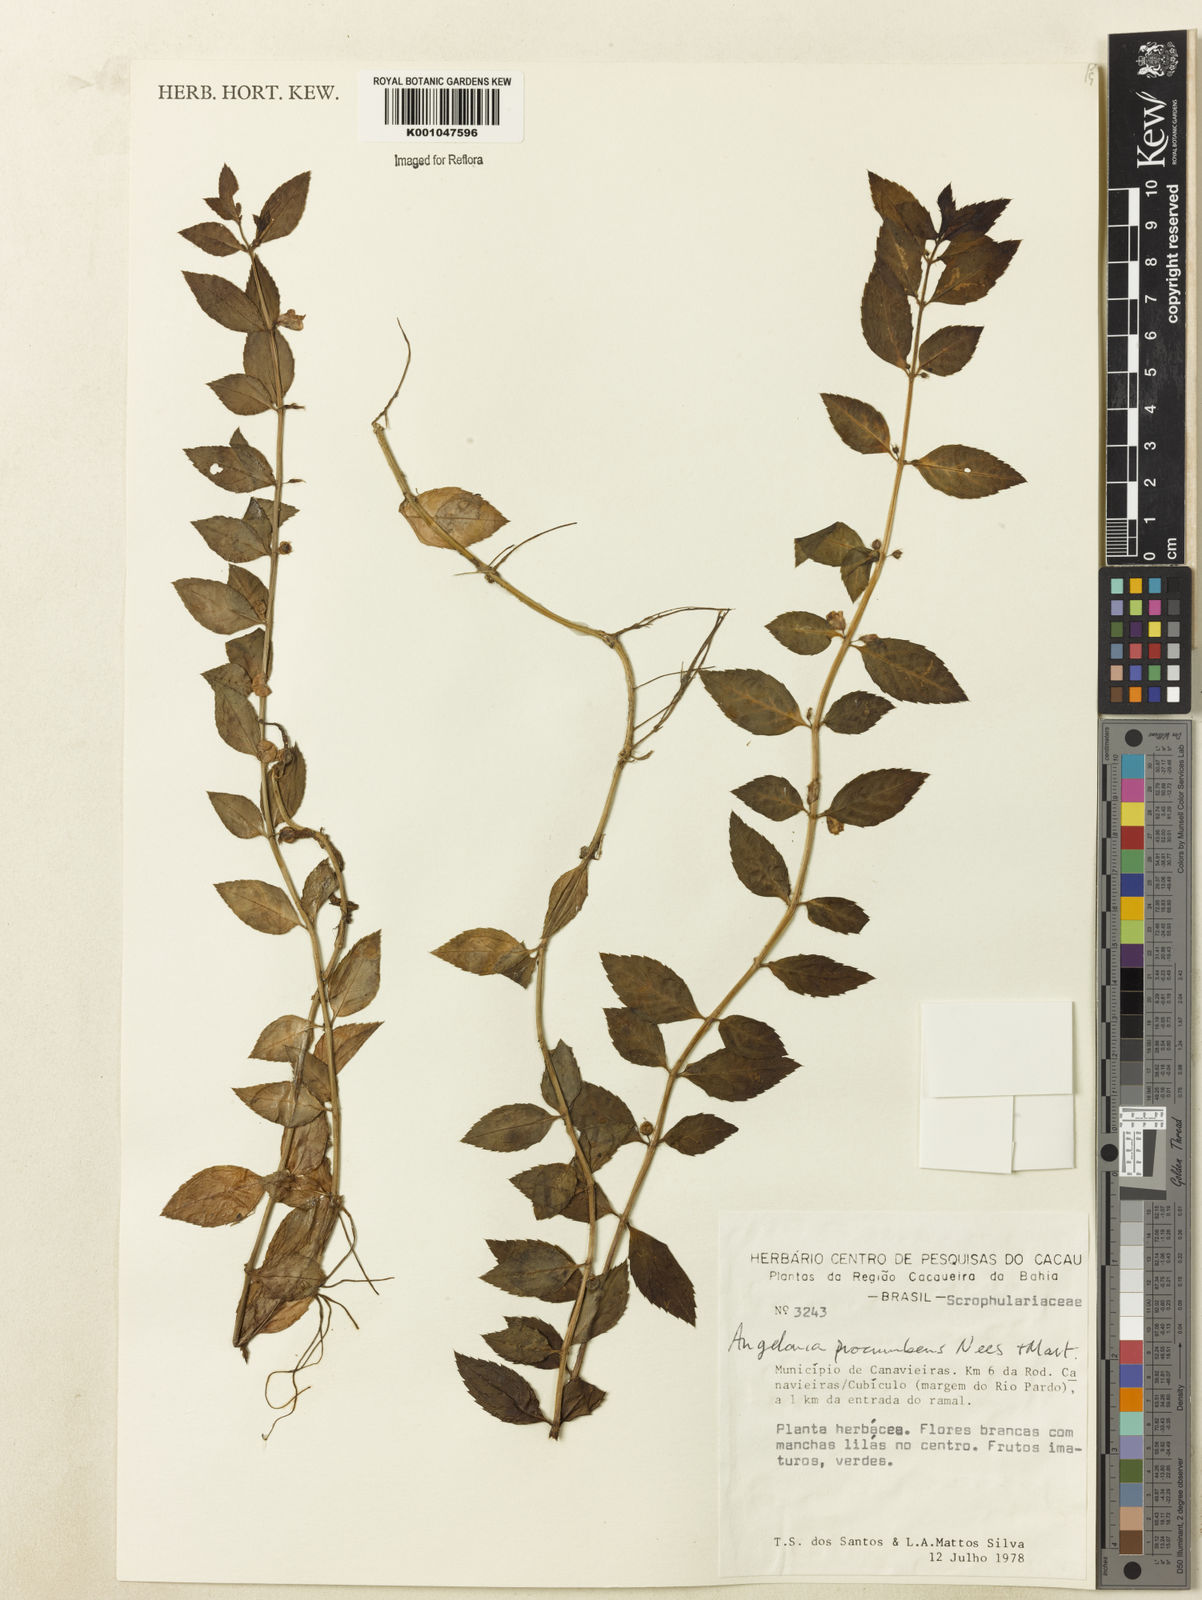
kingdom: Plantae
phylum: Tracheophyta
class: Magnoliopsida
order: Lamiales
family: Plantaginaceae
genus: Angelonia
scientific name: Angelonia procumbens
